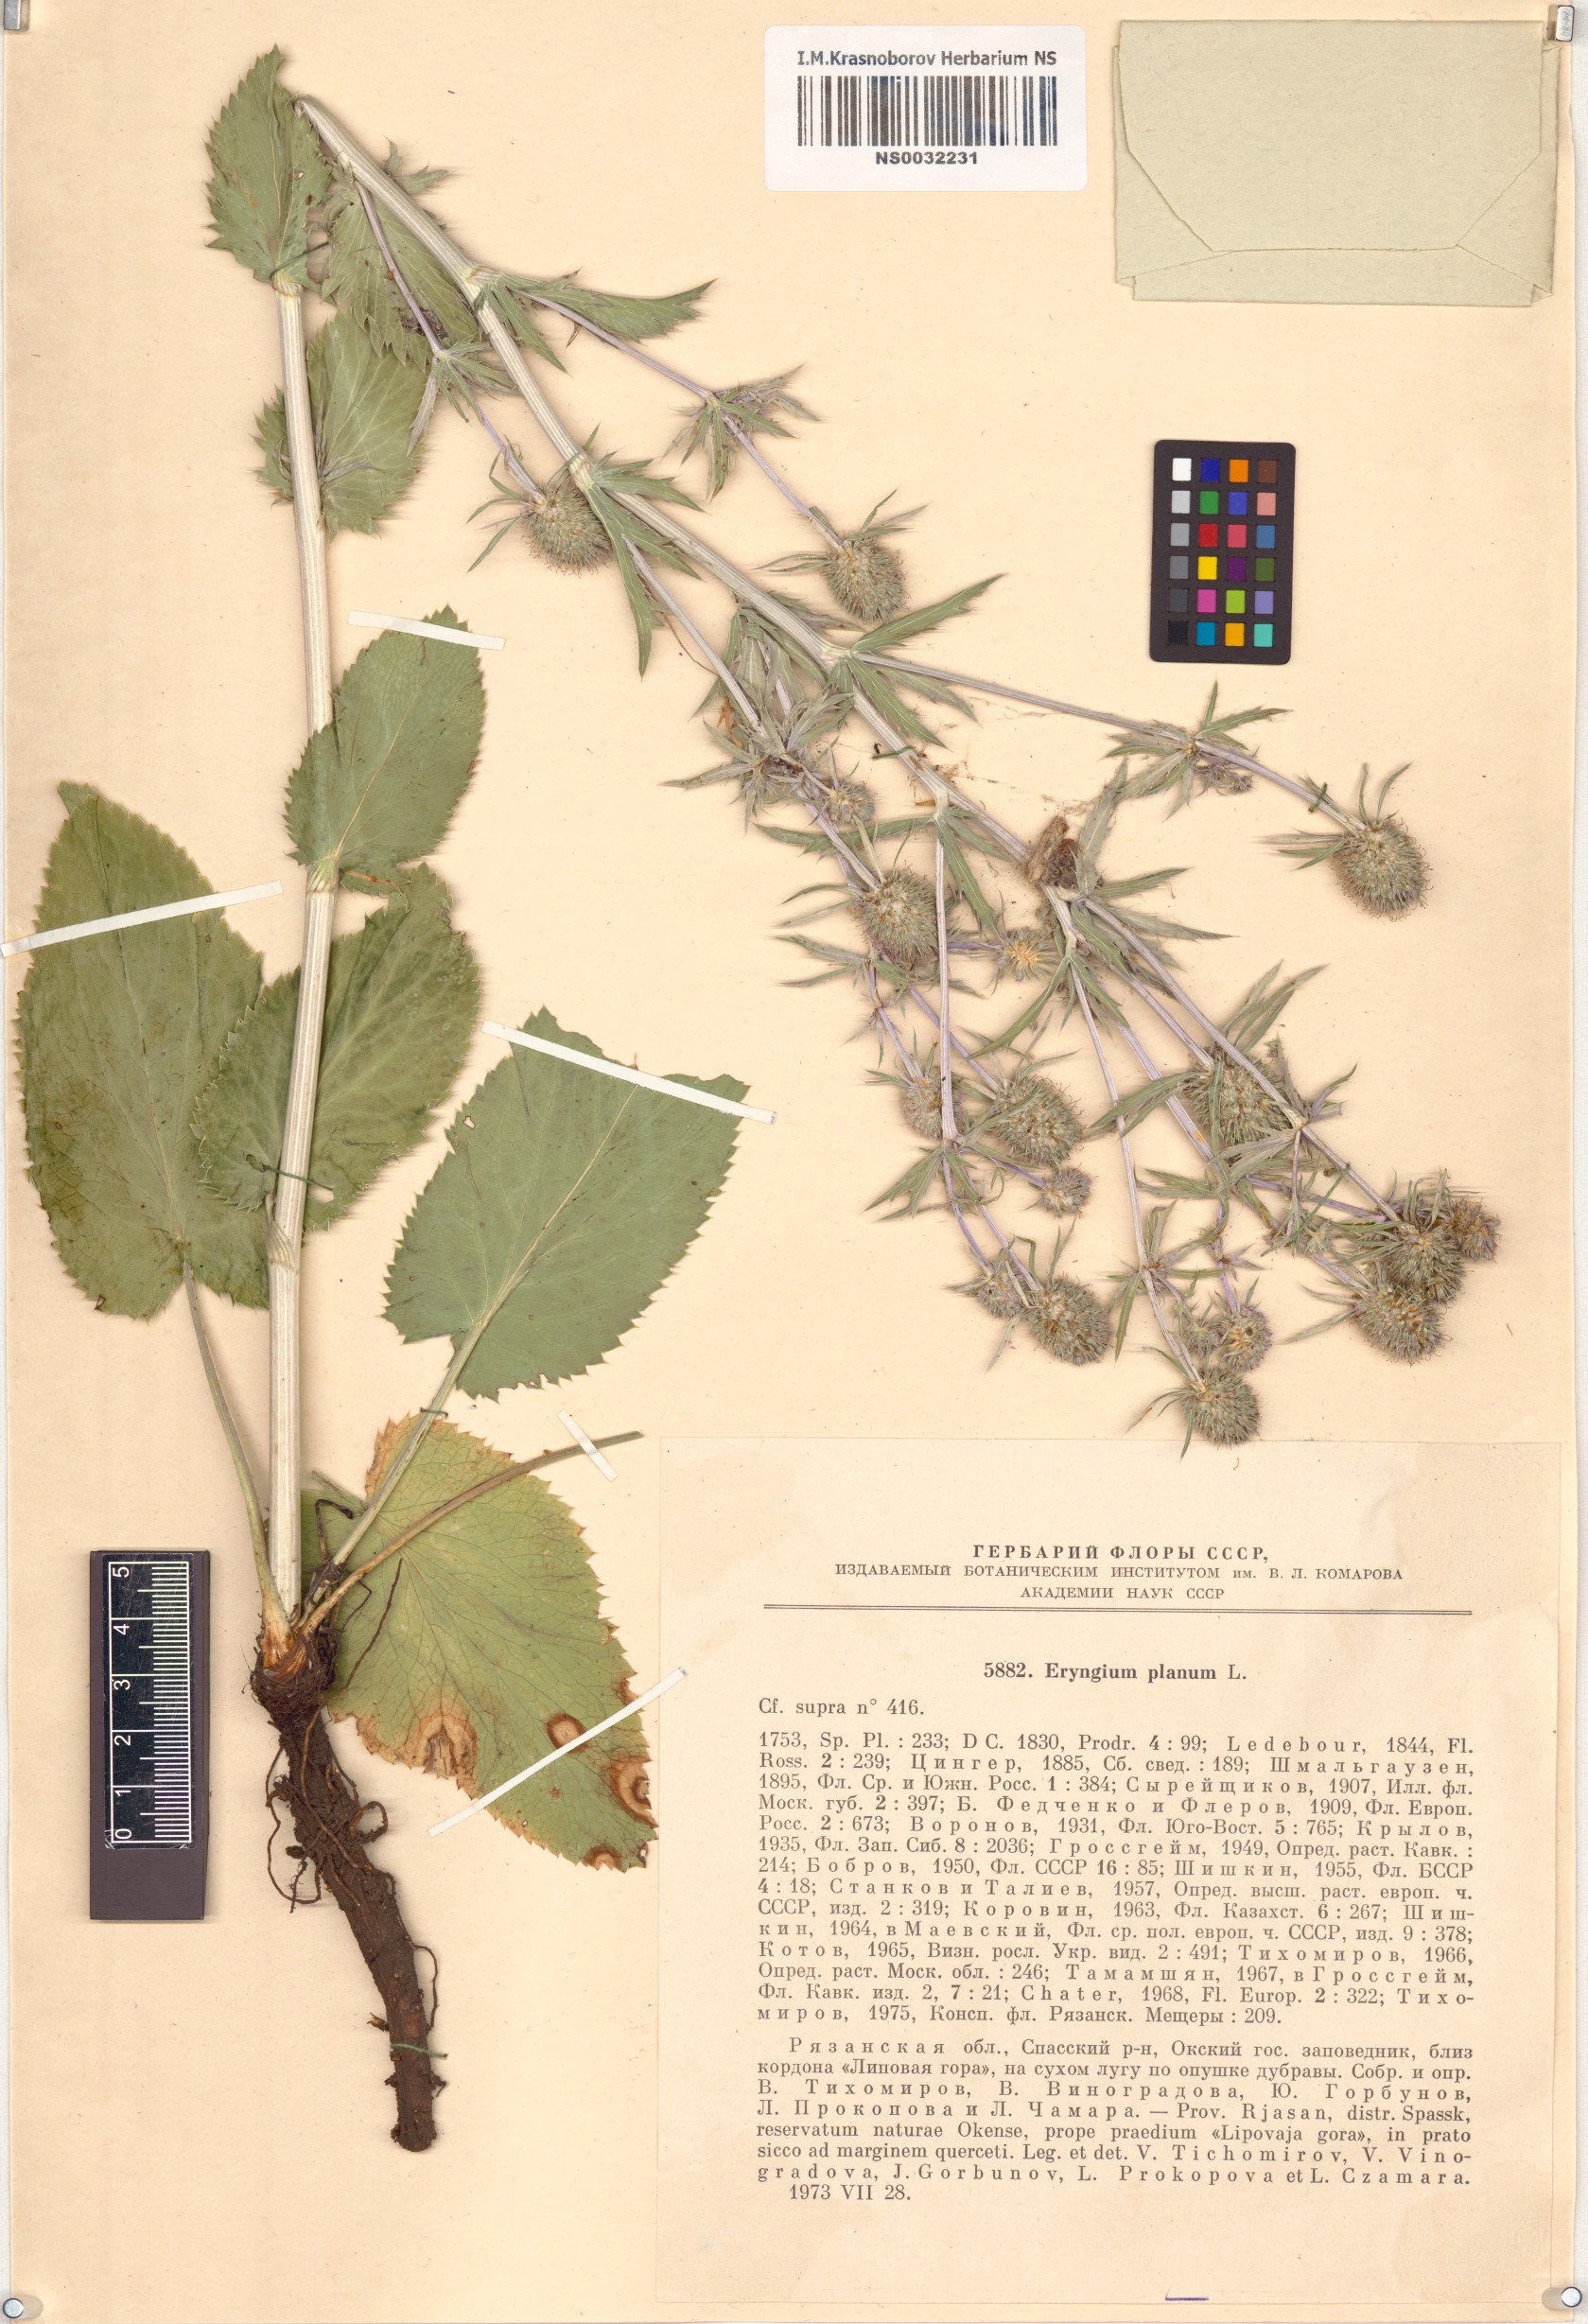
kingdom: Plantae
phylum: Tracheophyta
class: Magnoliopsida
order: Apiales
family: Apiaceae
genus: Eryngium
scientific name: Eryngium planum
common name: Blue eryngo
